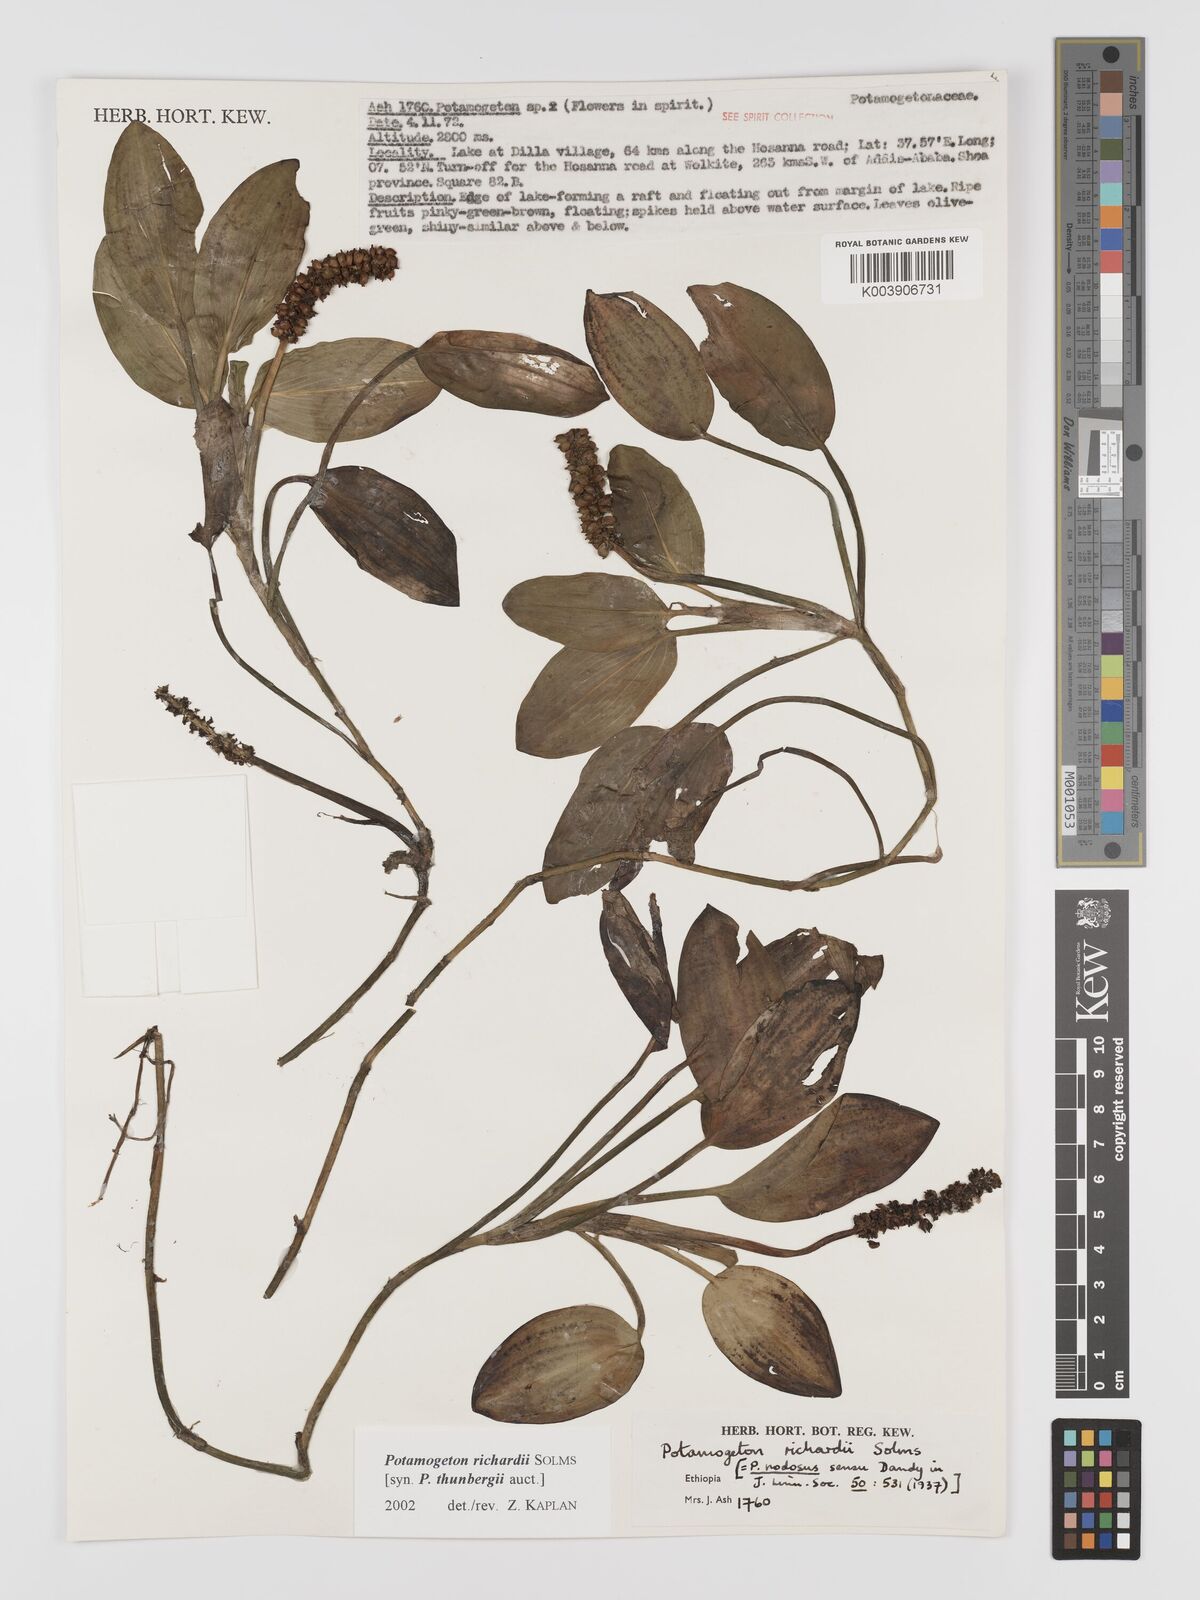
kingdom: Plantae
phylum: Tracheophyta
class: Liliopsida
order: Alismatales
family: Potamogetonaceae
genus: Potamogeton
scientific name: Potamogeton richardii
